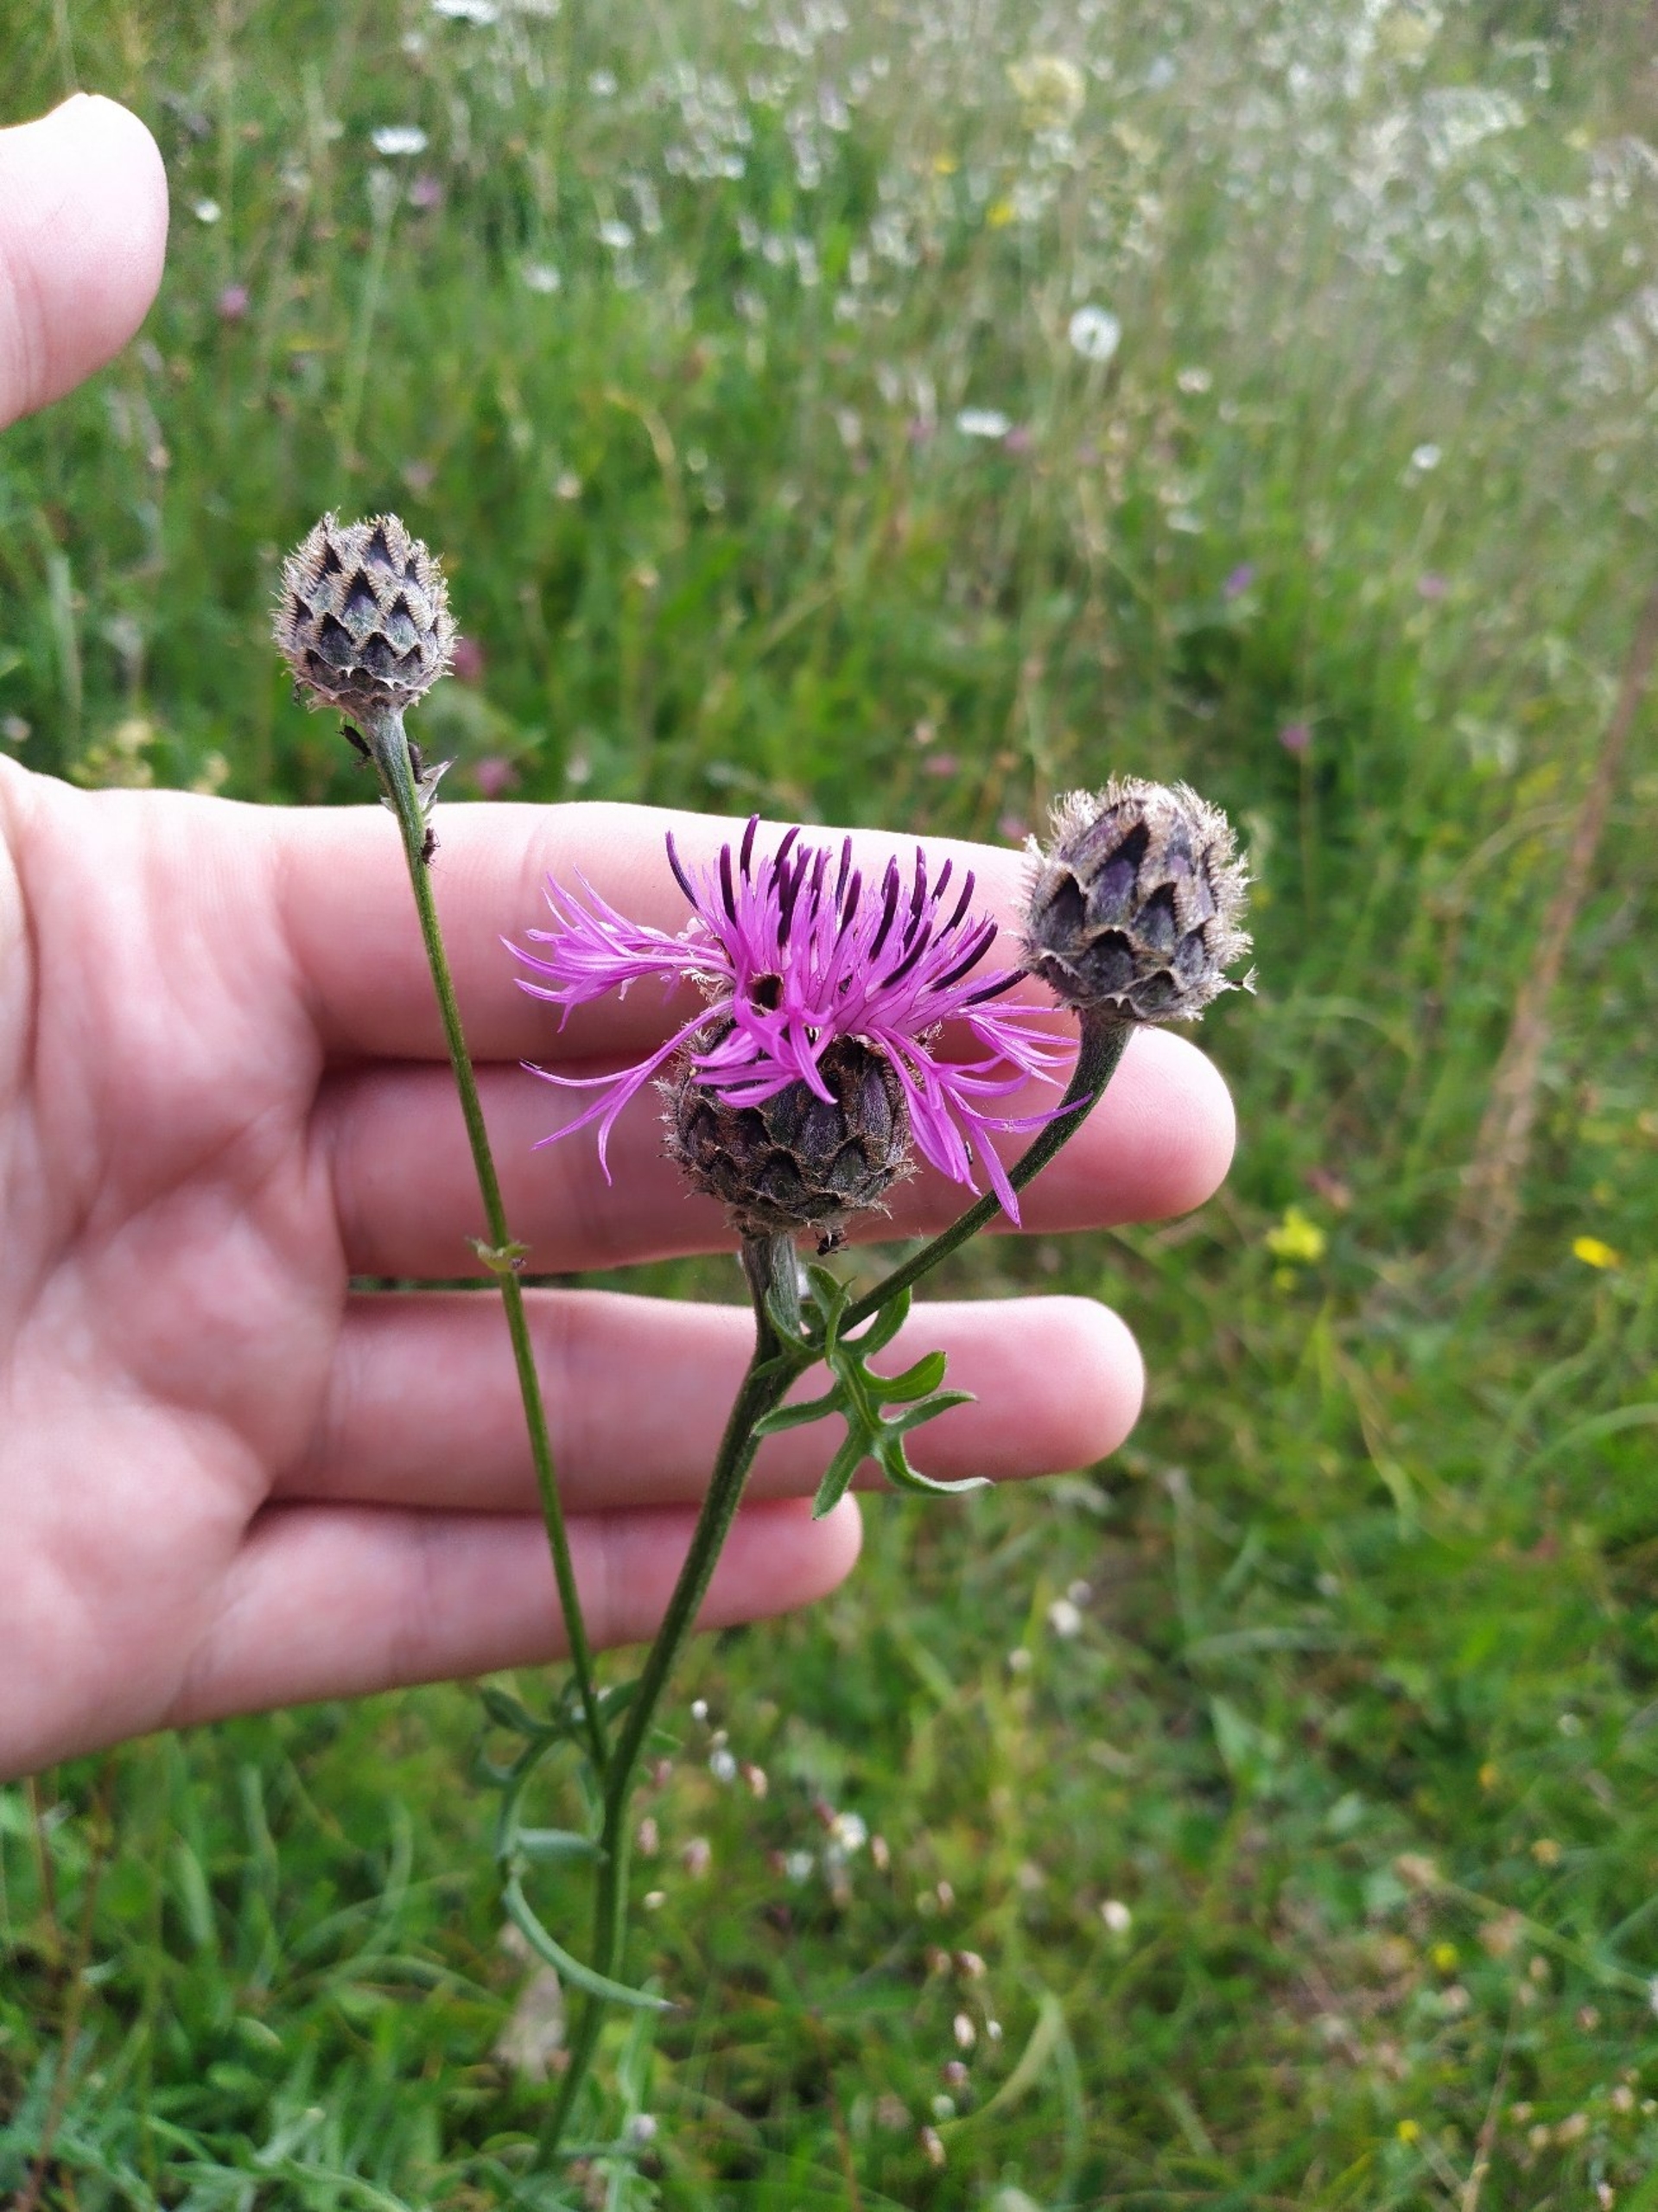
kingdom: Plantae
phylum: Tracheophyta
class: Magnoliopsida
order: Asterales
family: Asteraceae
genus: Centaurea
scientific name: Centaurea scabiosa
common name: Stor knopurt
